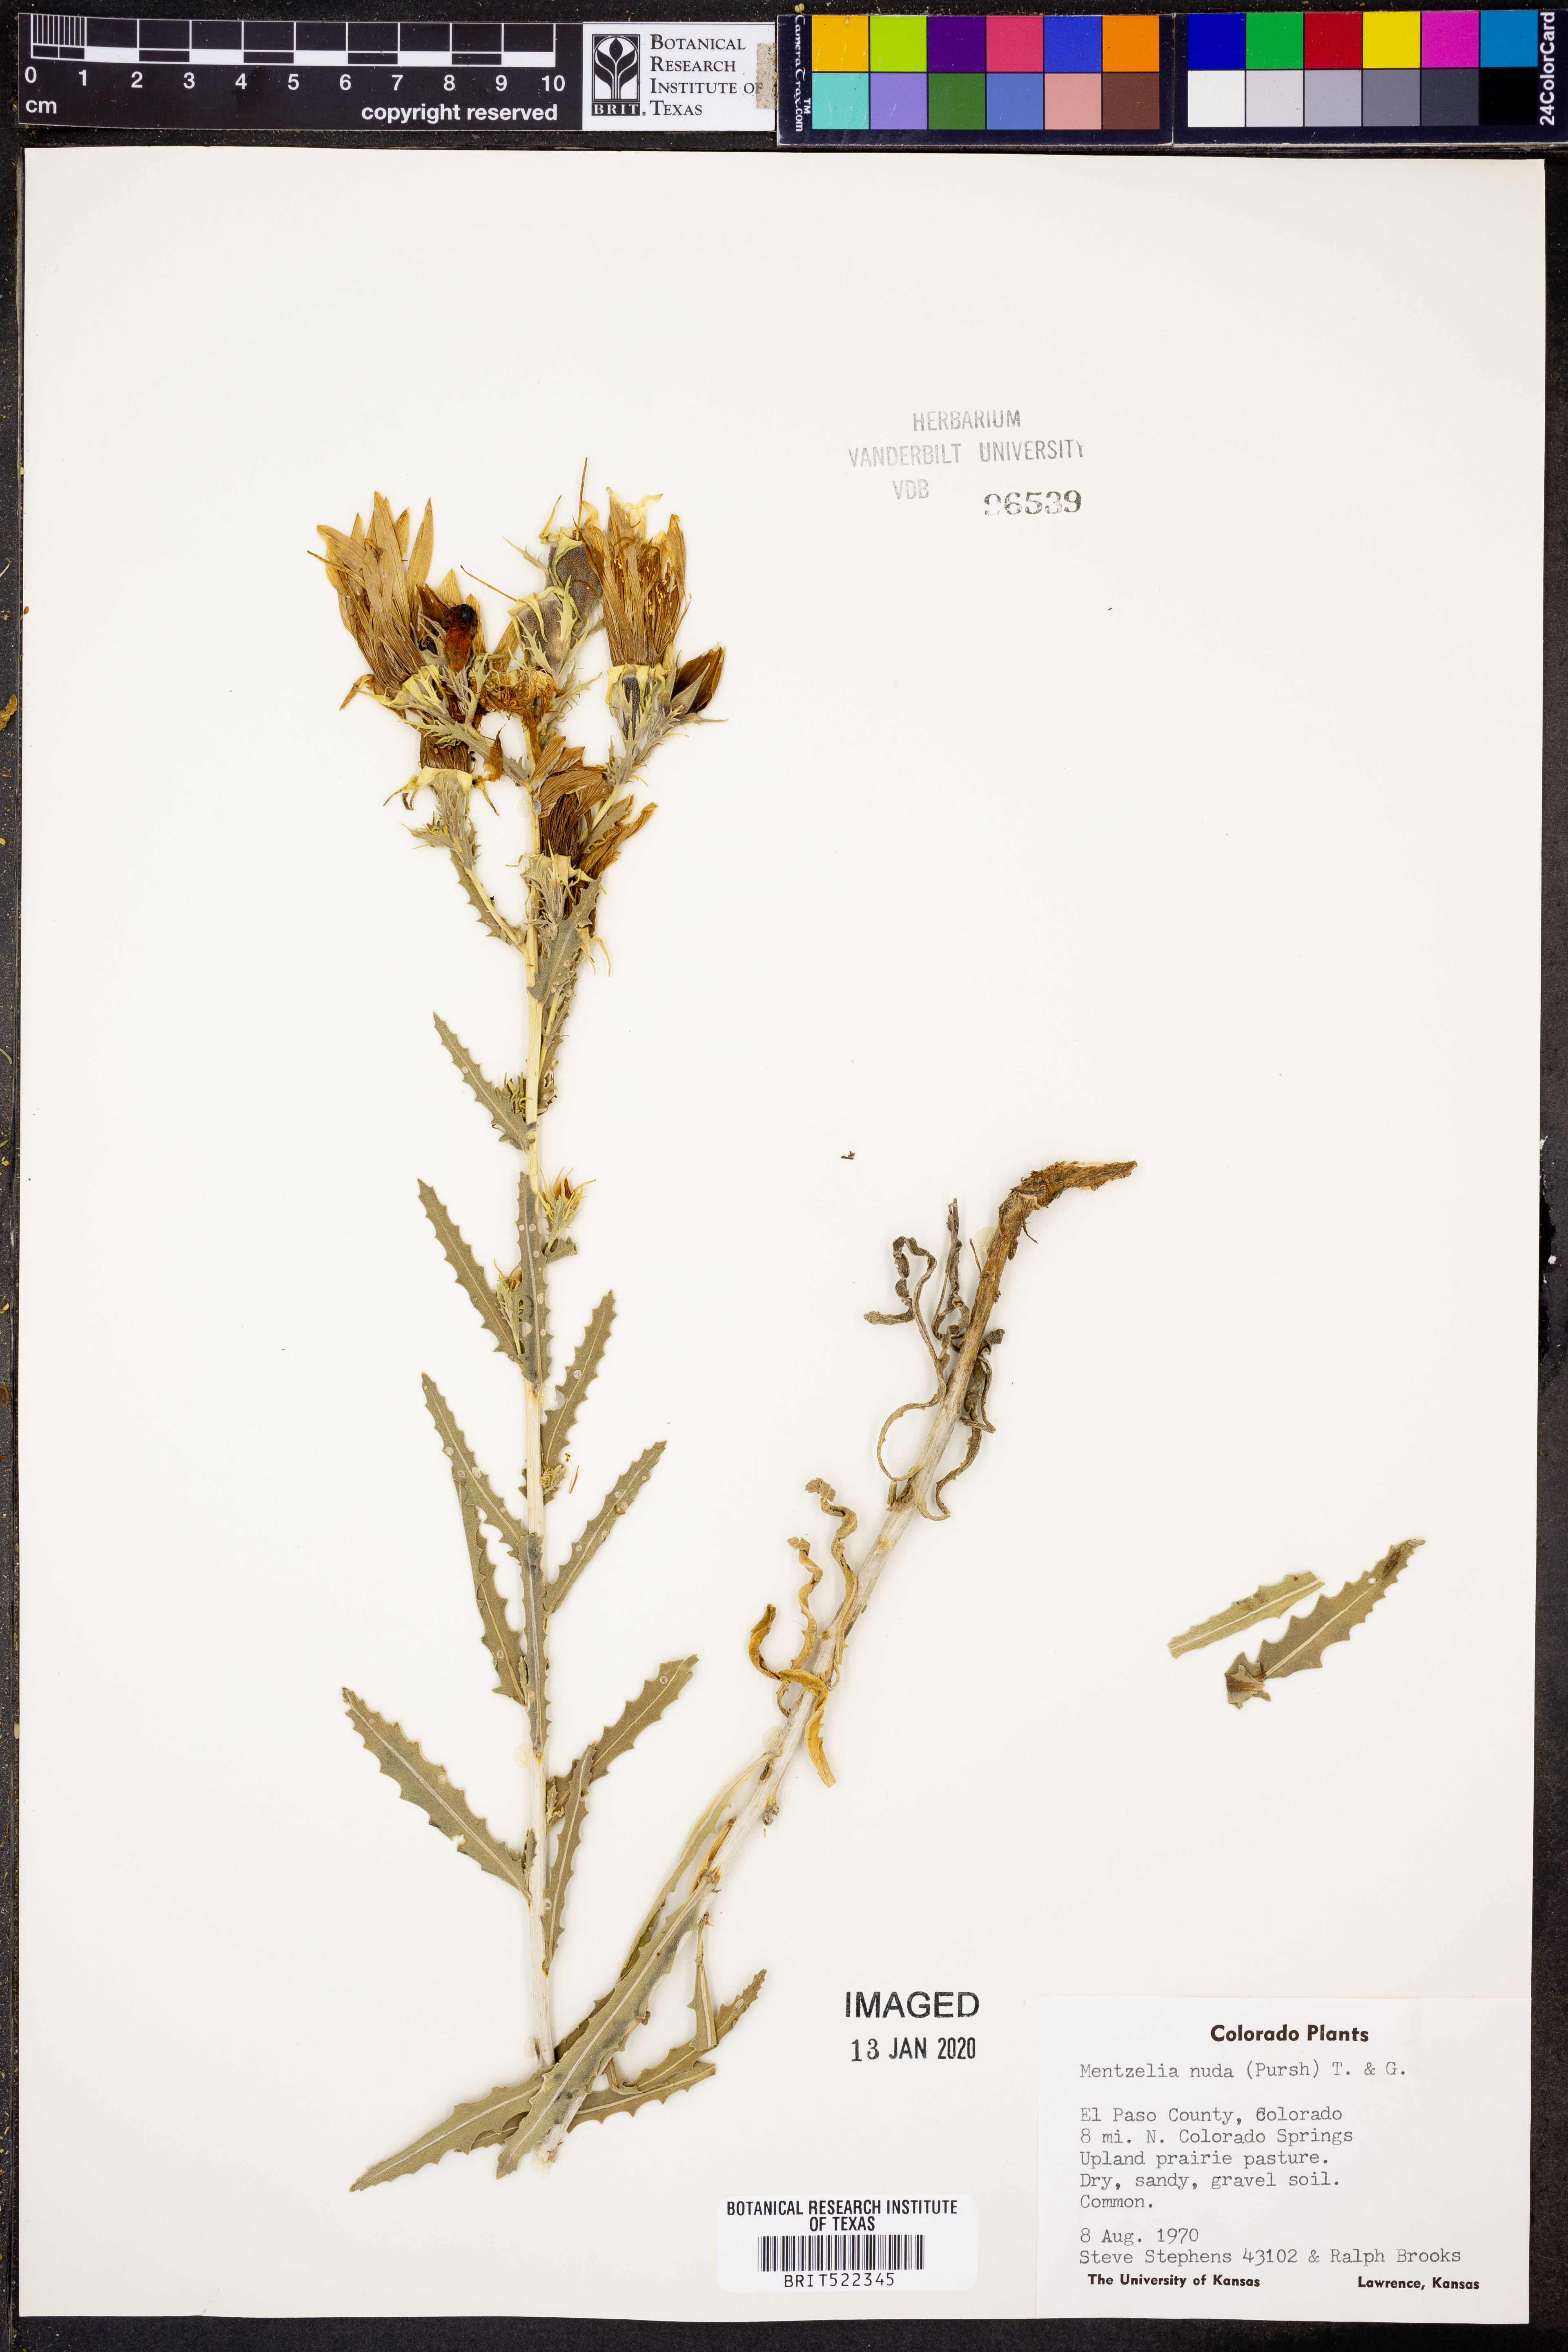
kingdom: Plantae
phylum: Tracheophyta
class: Magnoliopsida
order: Cornales
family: Loasaceae
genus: Mentzelia
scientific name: Mentzelia nuda
